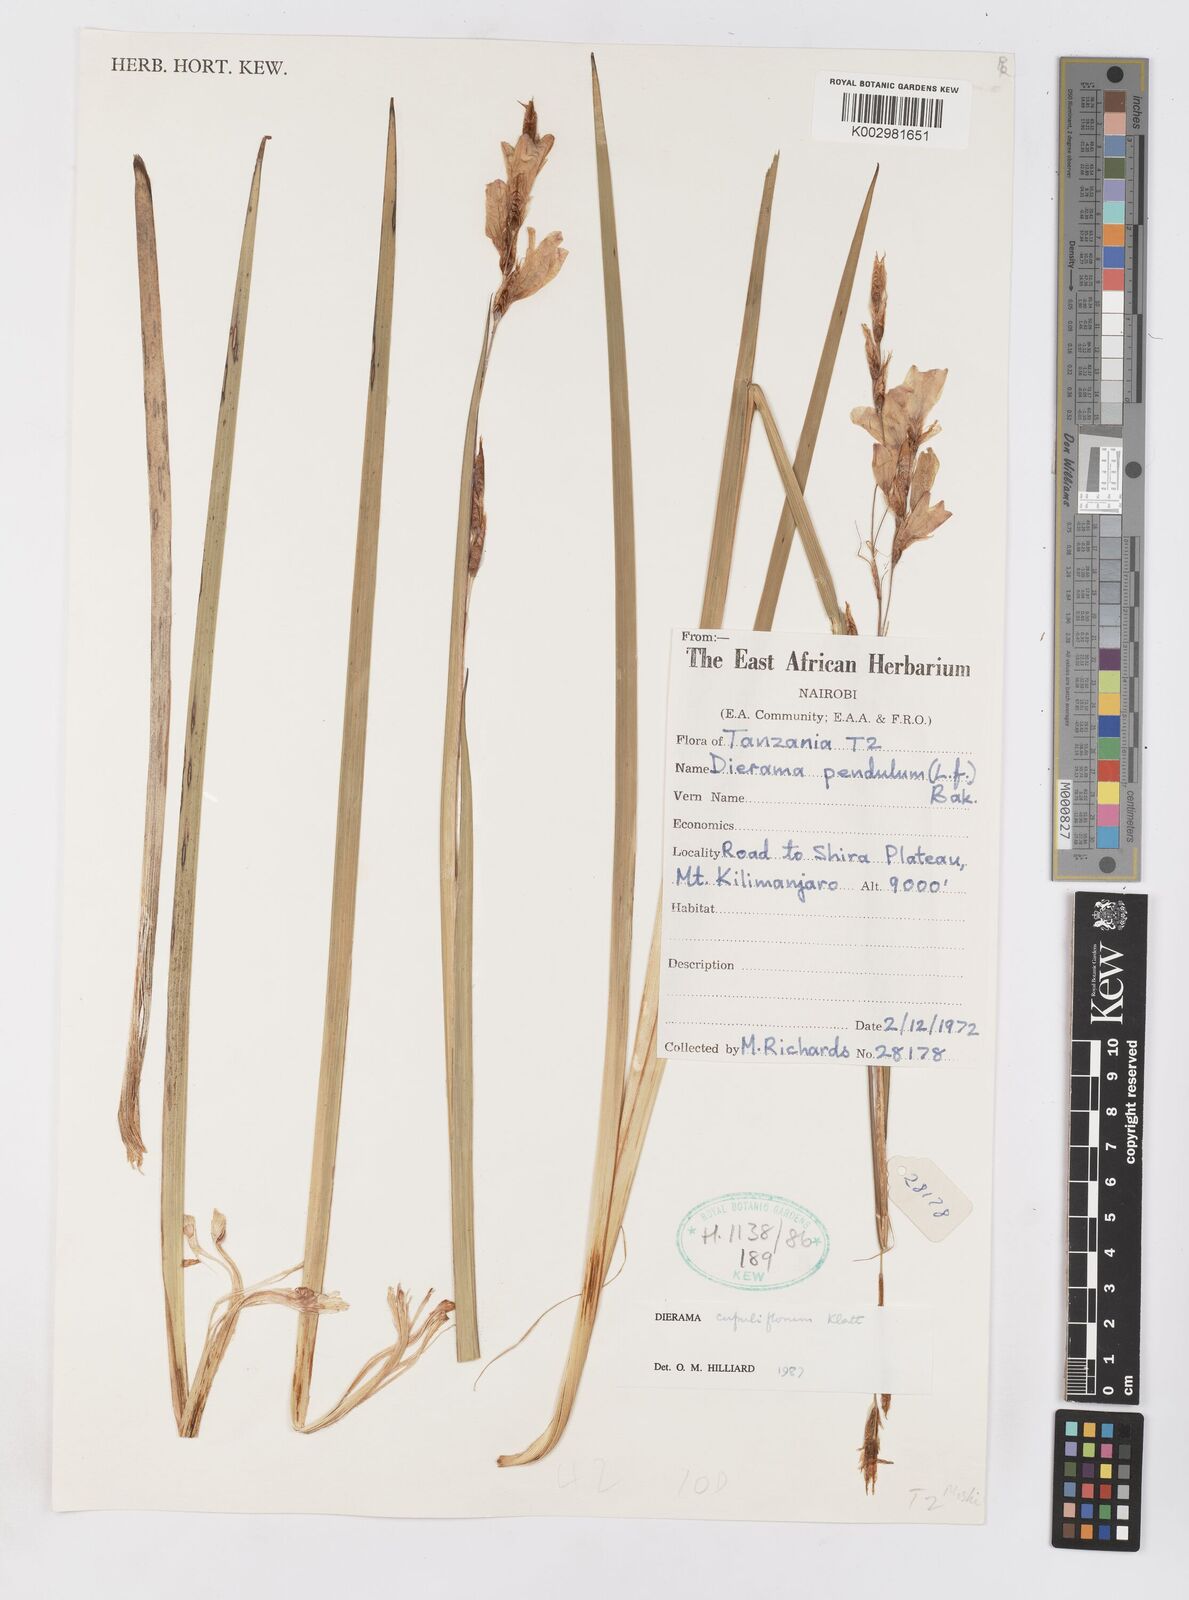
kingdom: Plantae
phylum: Tracheophyta
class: Liliopsida
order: Asparagales
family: Iridaceae
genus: Dierama
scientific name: Dierama cupuliflorum
